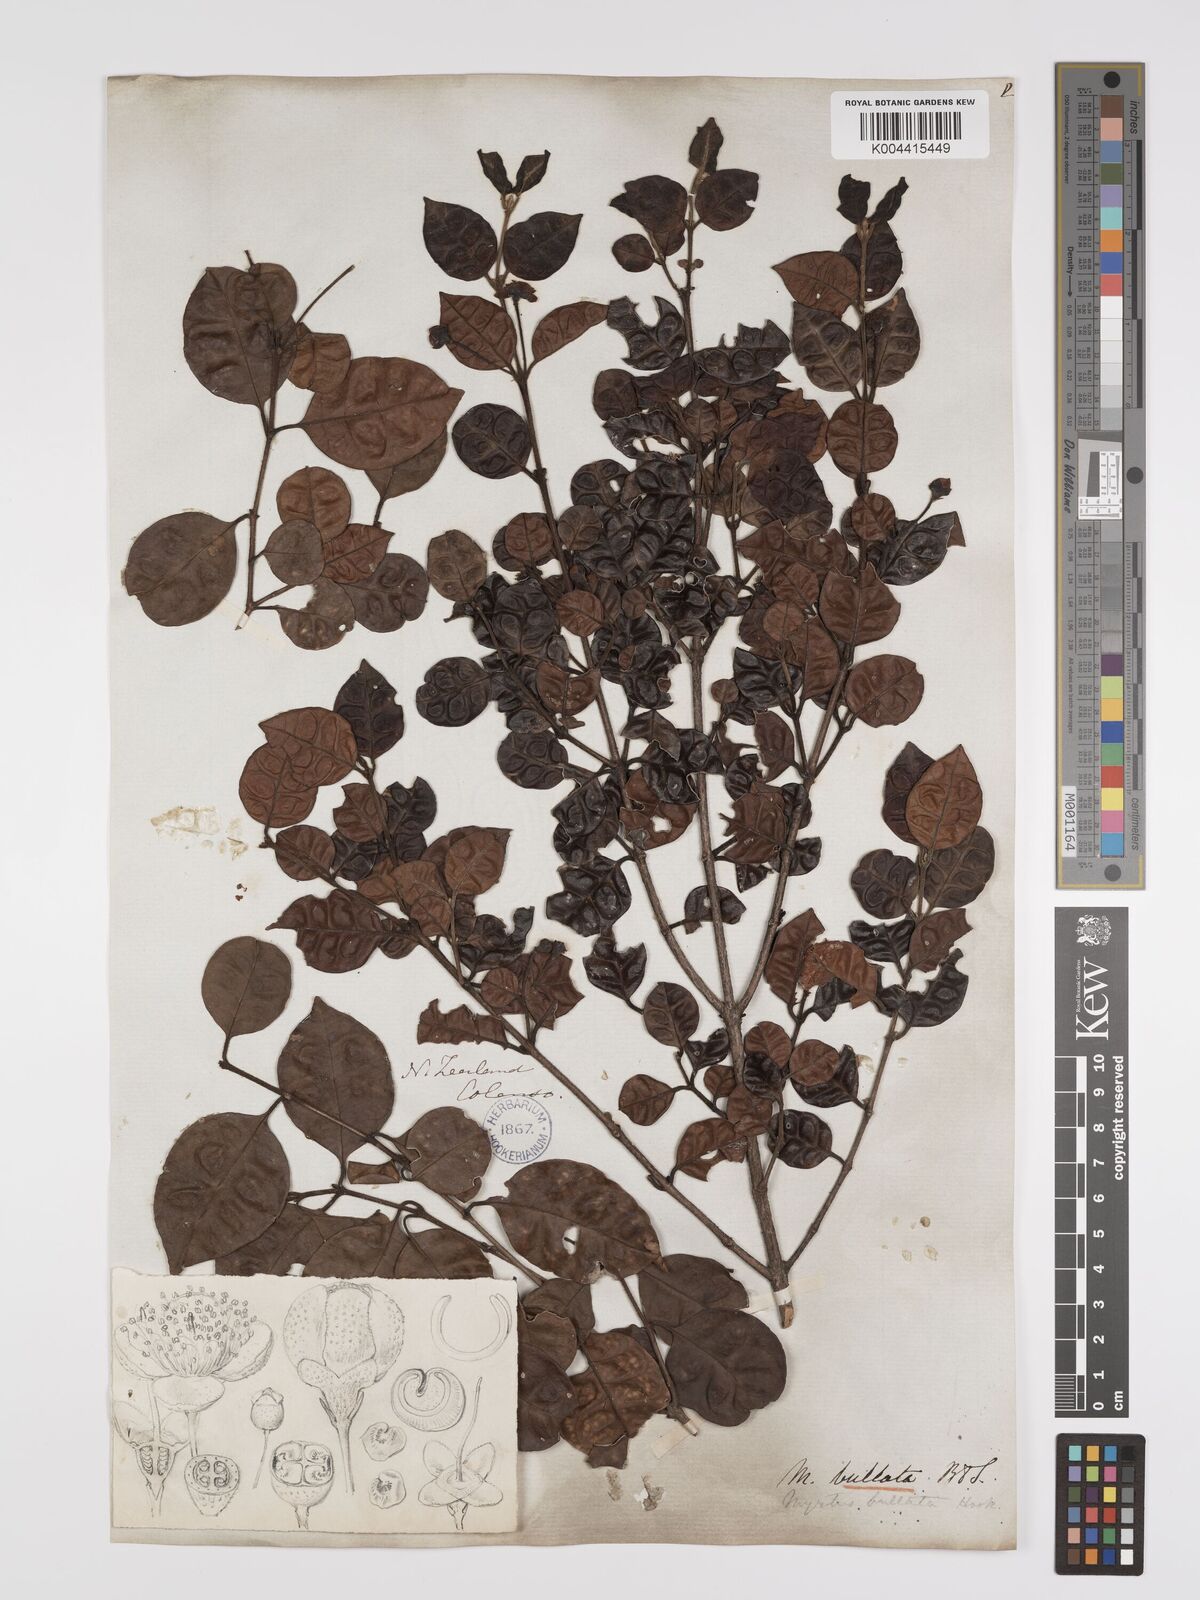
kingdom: Plantae
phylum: Tracheophyta
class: Magnoliopsida
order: Myrtales
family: Myrtaceae
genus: Lophomyrtus
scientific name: Lophomyrtus bullata
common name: Rama rama
